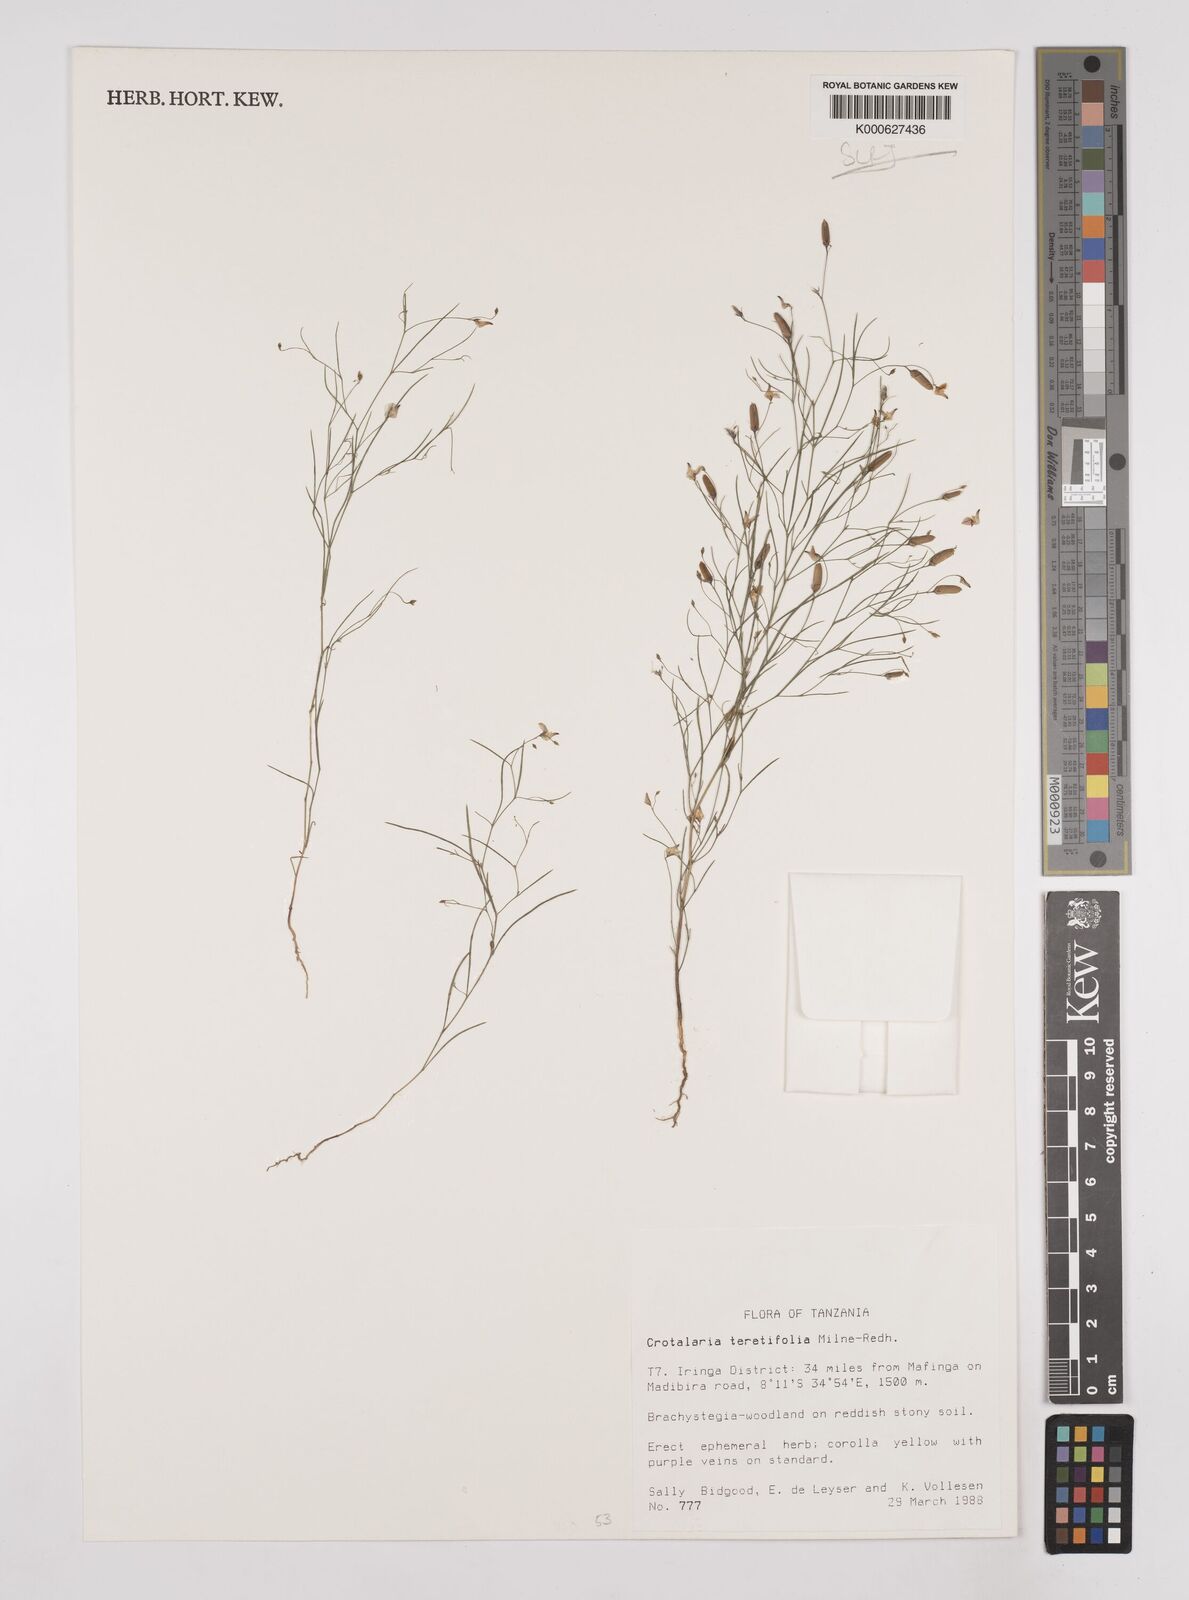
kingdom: Plantae
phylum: Tracheophyta
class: Magnoliopsida
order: Fabales
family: Fabaceae
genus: Crotalaria
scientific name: Crotalaria teretifolia
